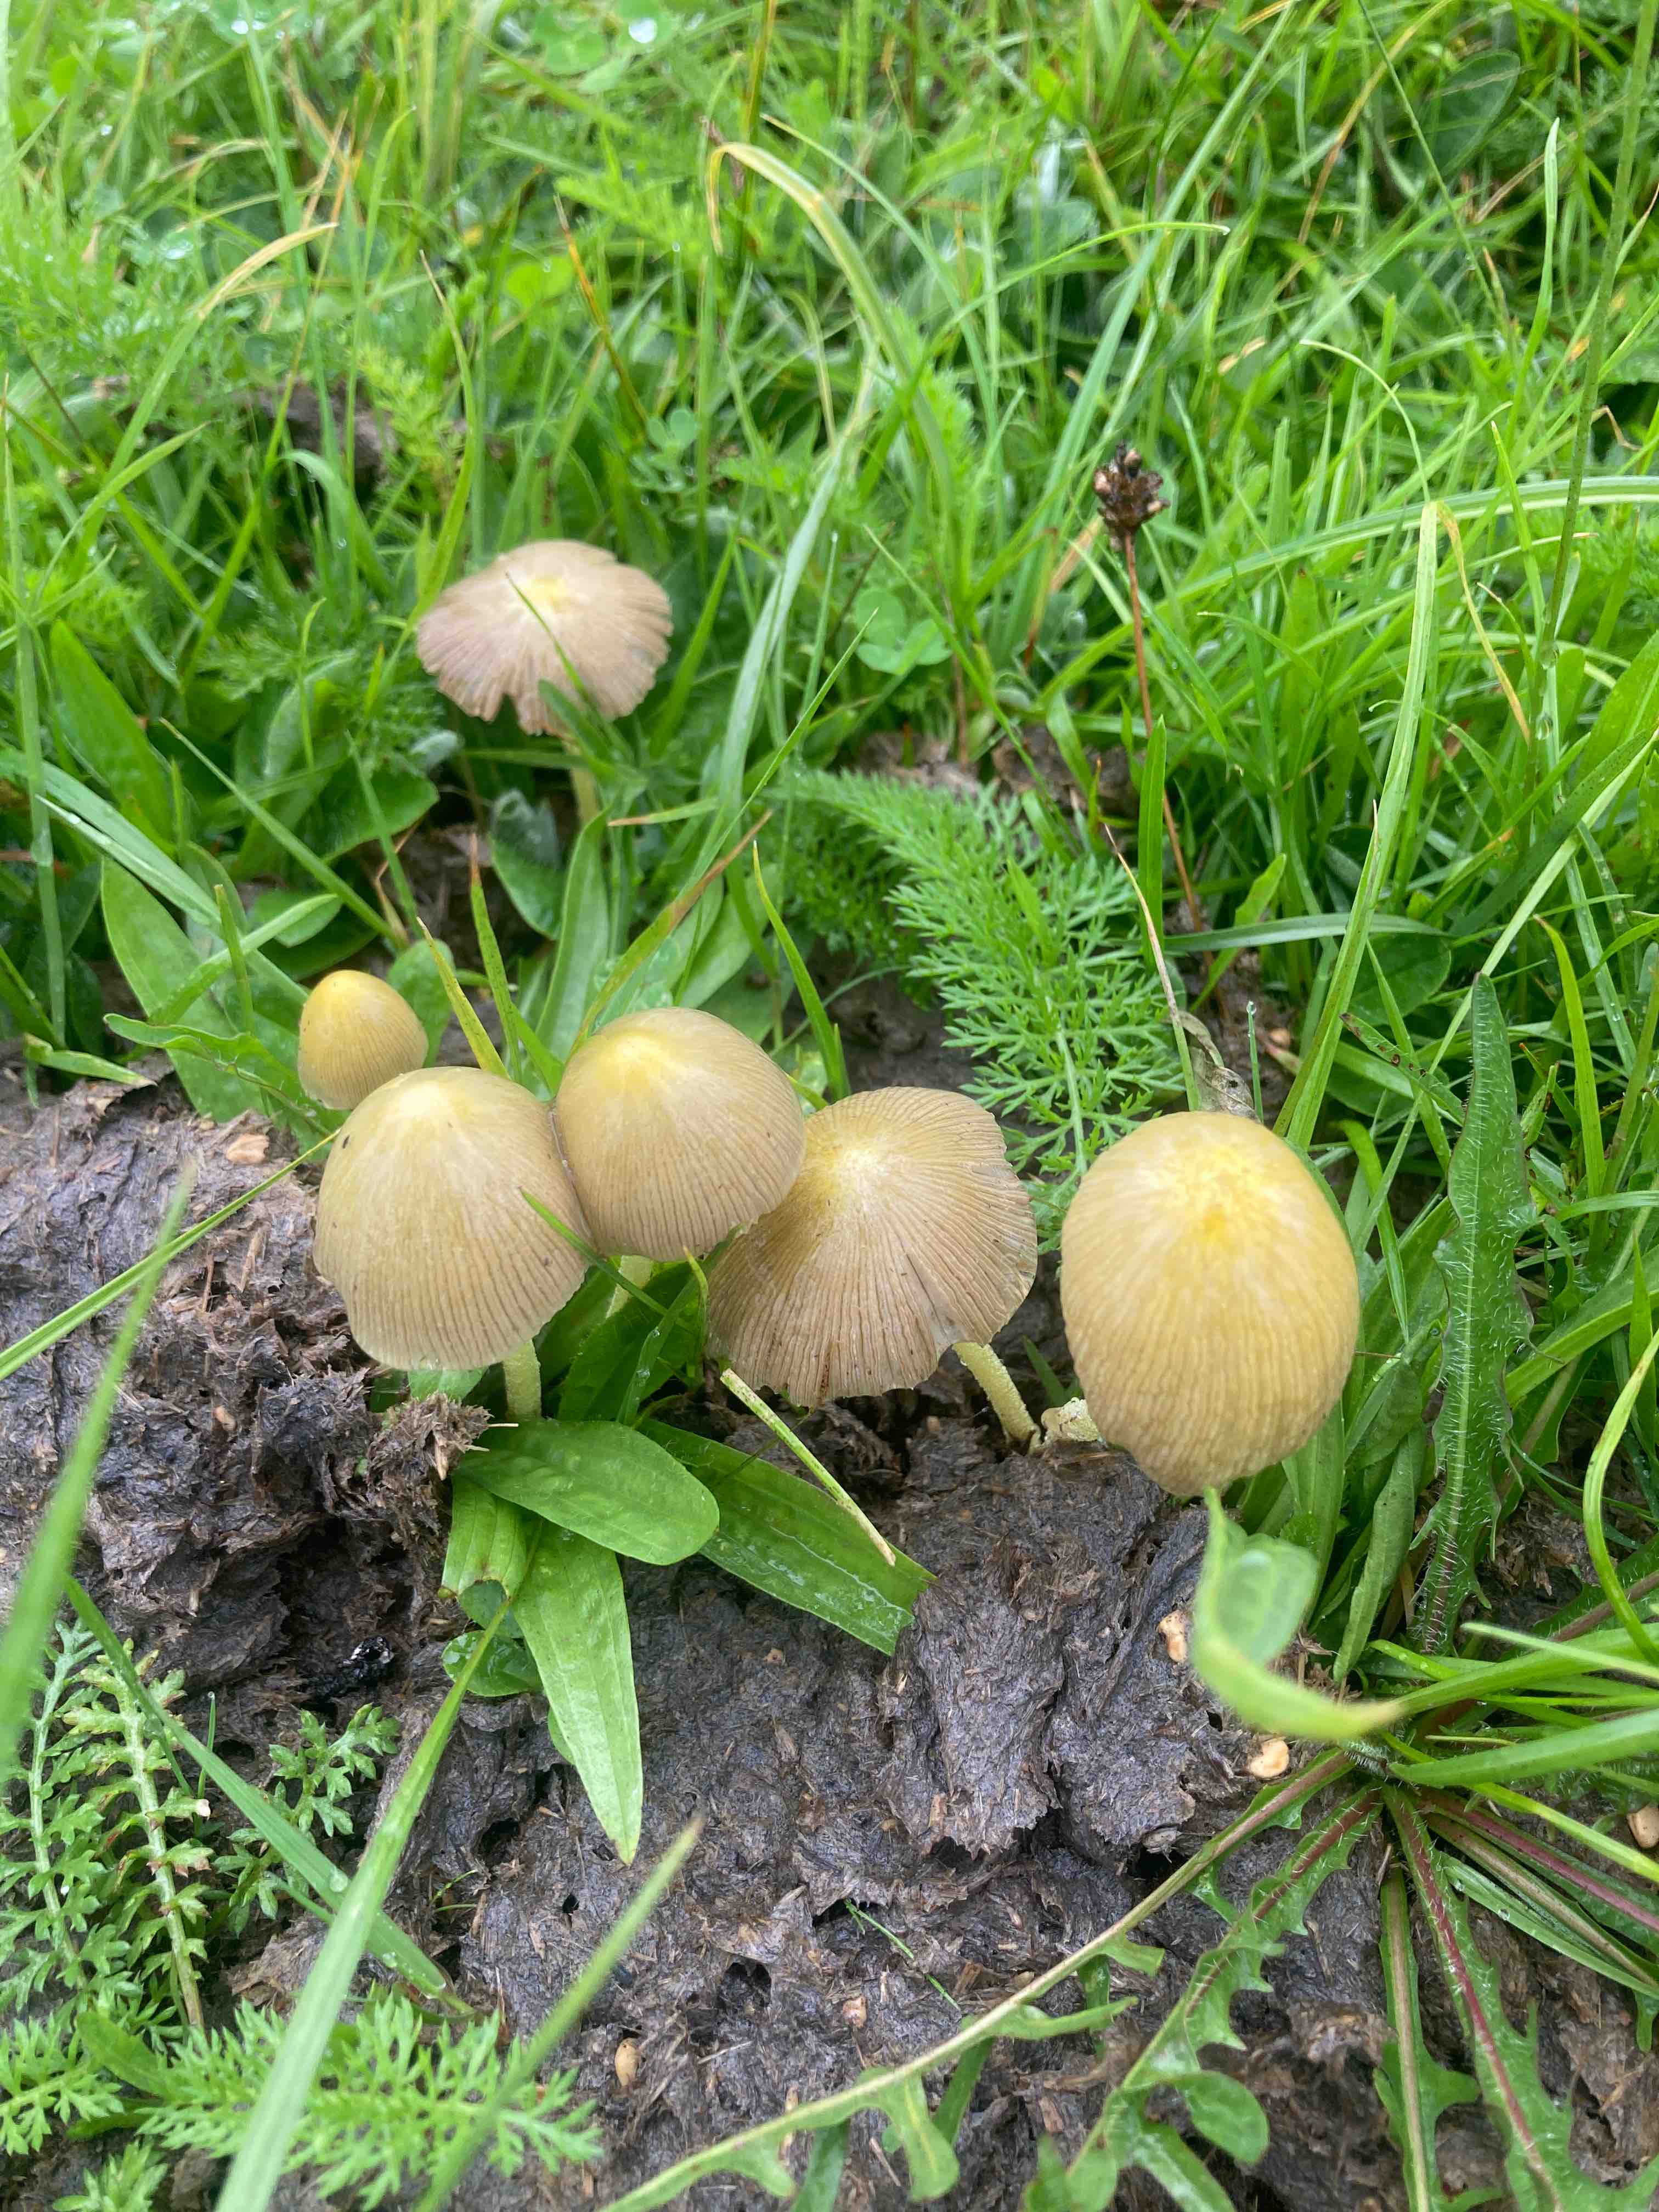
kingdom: Fungi
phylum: Basidiomycota
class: Agaricomycetes
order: Agaricales
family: Bolbitiaceae
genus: Bolbitius
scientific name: Bolbitius titubans
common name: almindelig gulhat
